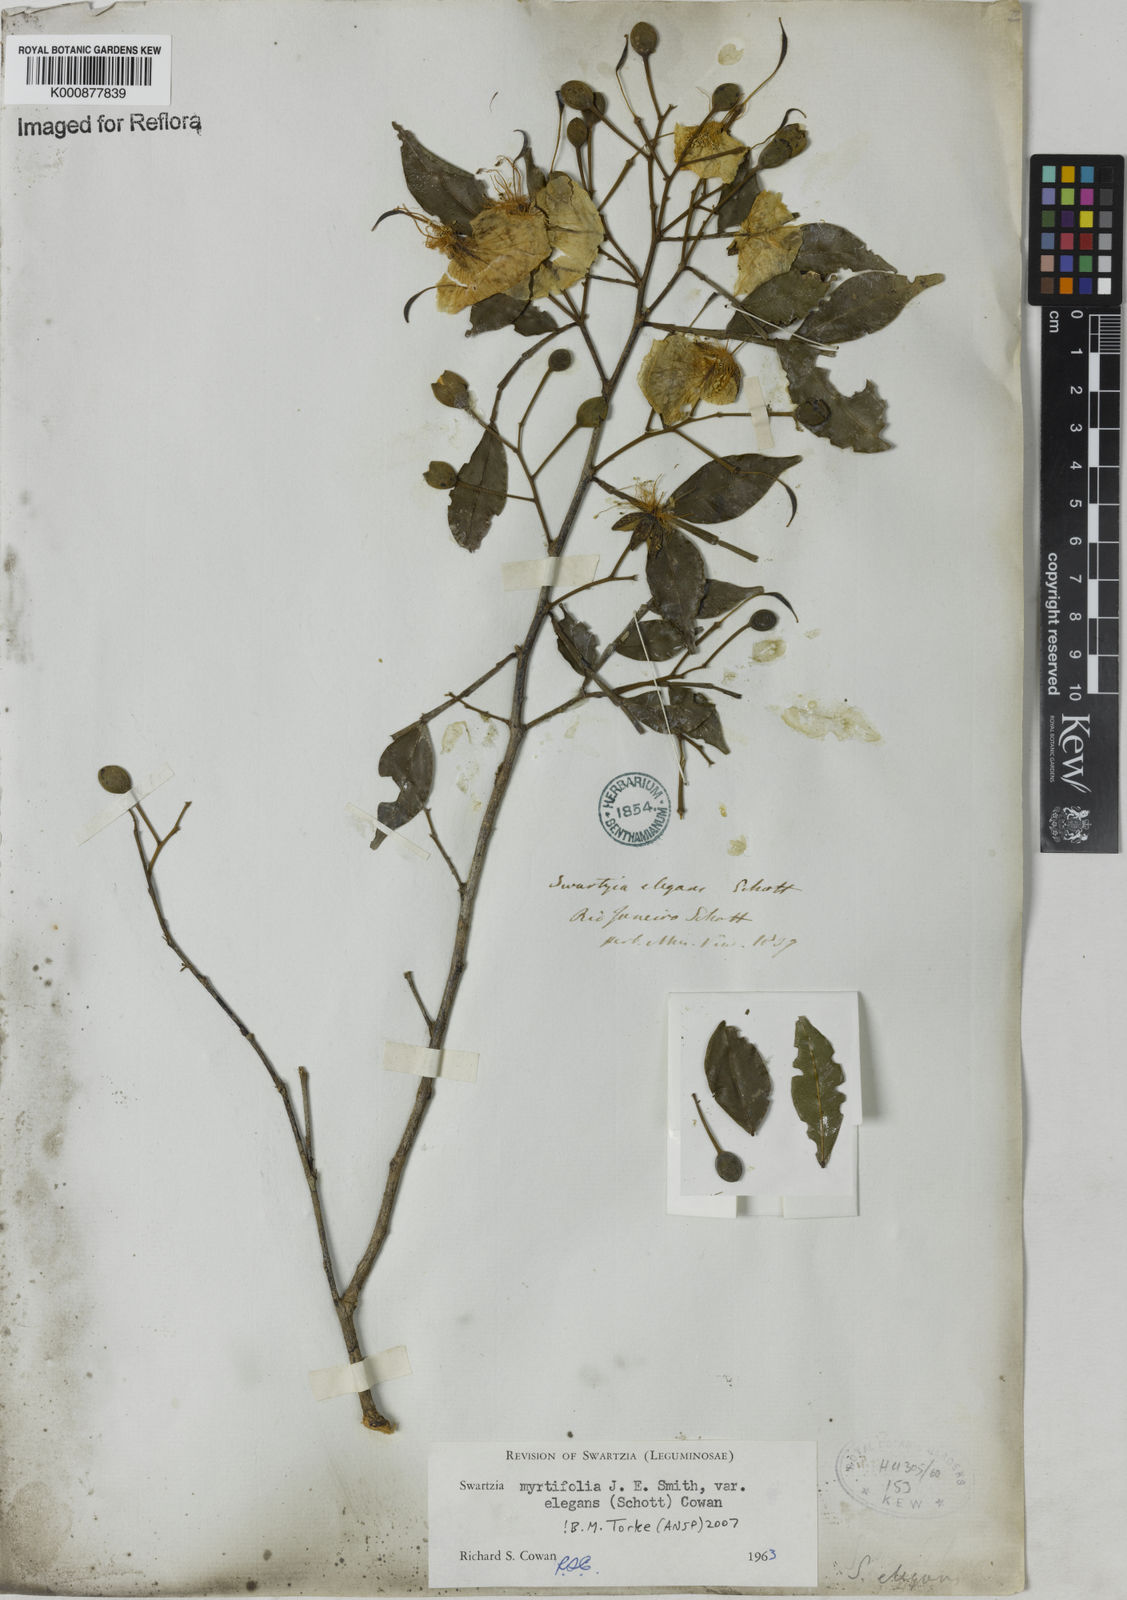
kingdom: Plantae
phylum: Tracheophyta
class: Magnoliopsida
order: Fabales
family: Fabaceae
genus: Swartzia
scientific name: Swartzia myrtifolia
